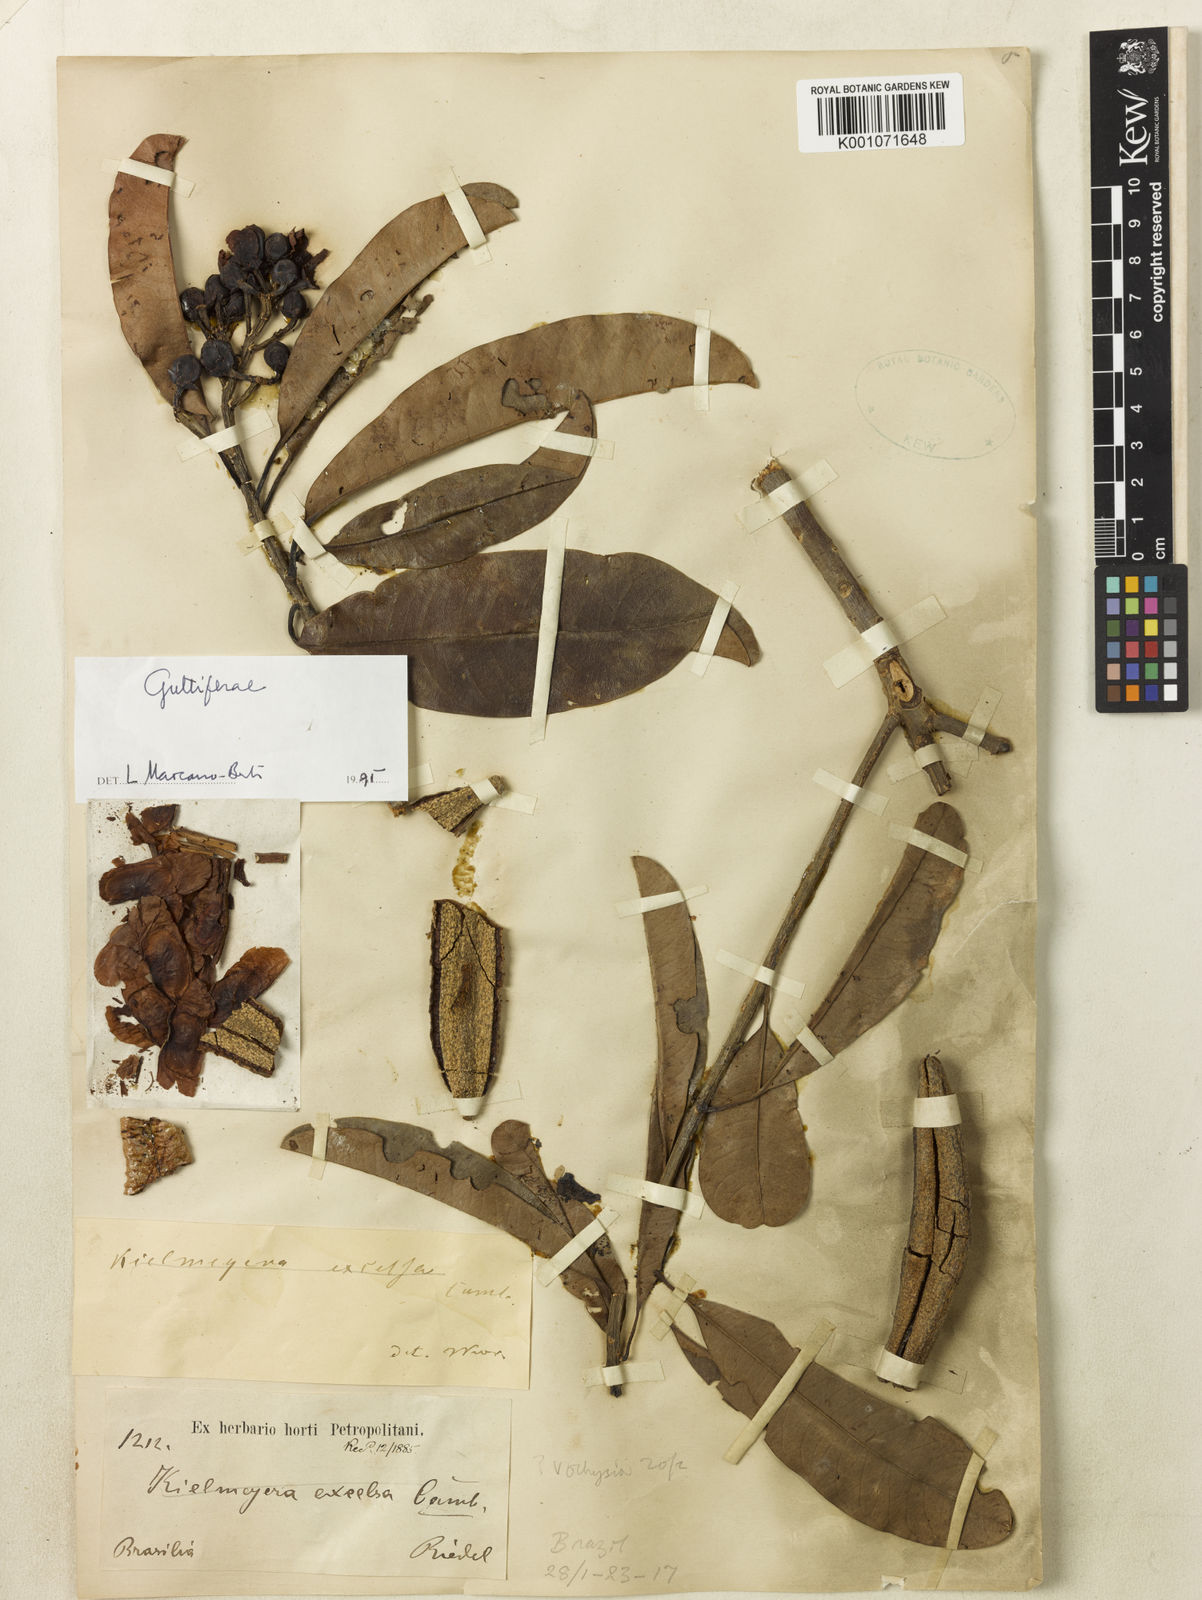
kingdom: Plantae
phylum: Tracheophyta
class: Magnoliopsida
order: Malpighiales
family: Calophyllaceae
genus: Kielmeyera
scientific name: Kielmeyera membranacea
